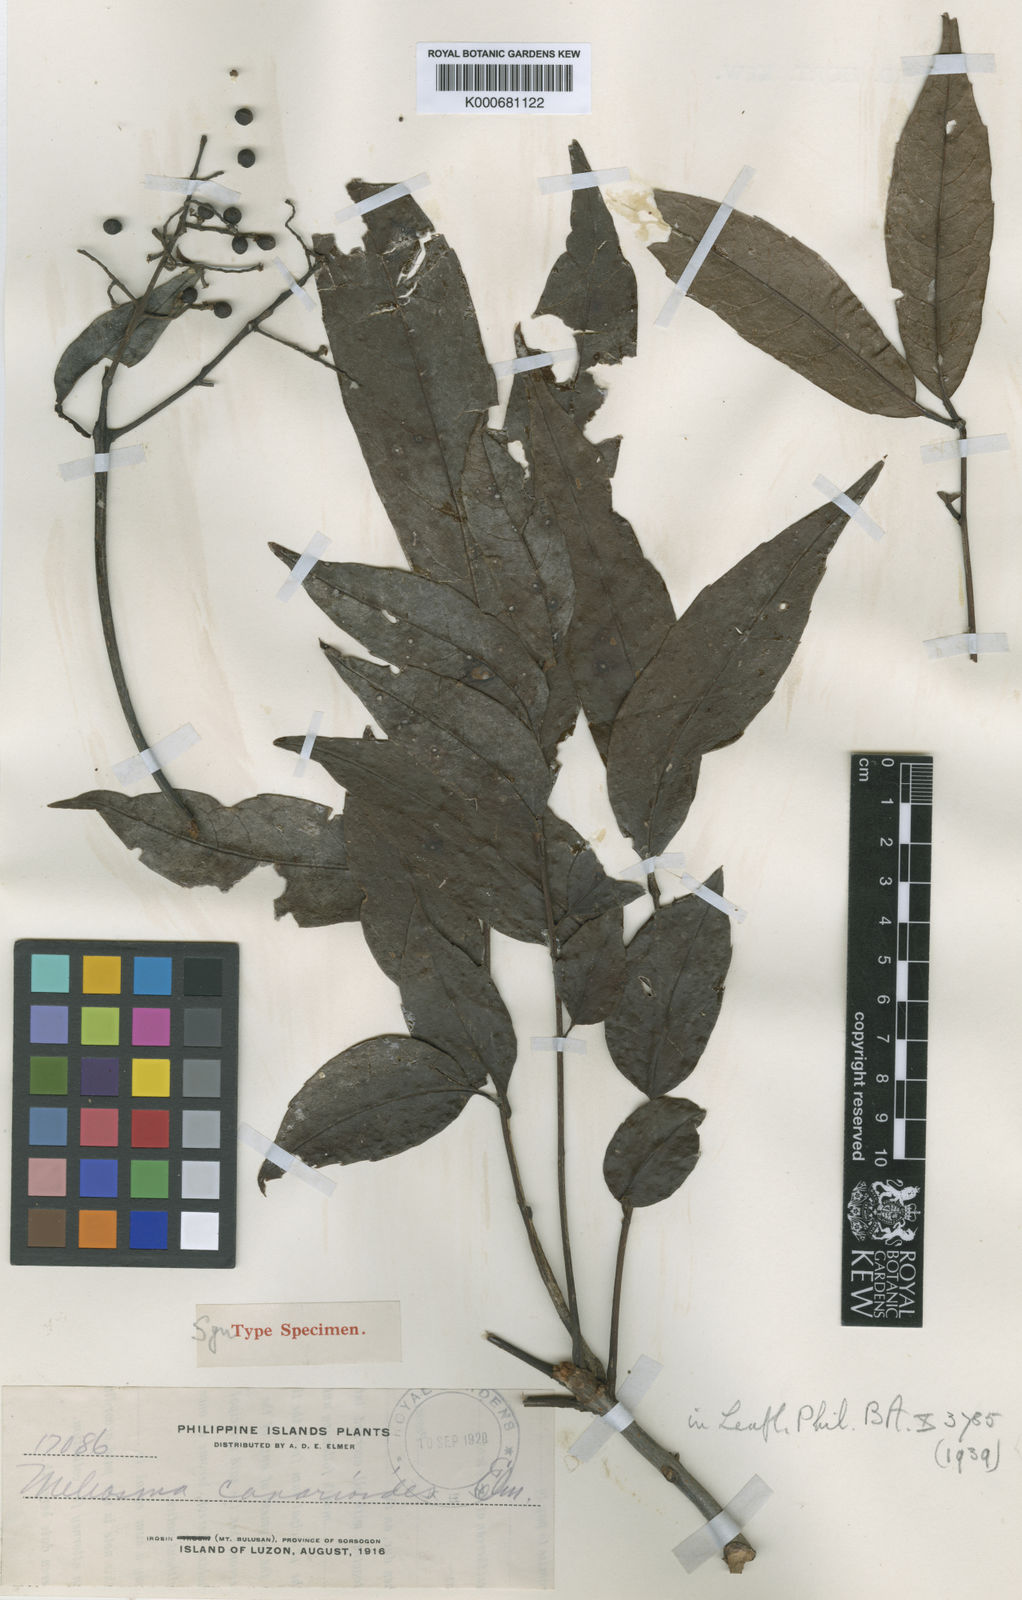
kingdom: Plantae
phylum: Tracheophyta
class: Magnoliopsida
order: Proteales
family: Sabiaceae
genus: Meliosma
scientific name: Meliosma pinnata
